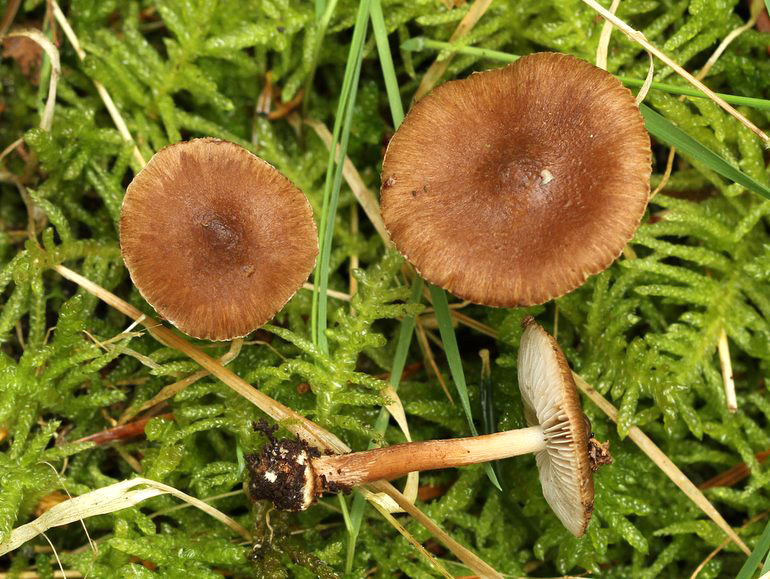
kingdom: Fungi
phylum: Basidiomycota
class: Agaricomycetes
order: Agaricales
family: Inocybaceae
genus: Inocybe
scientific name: Inocybe napipes
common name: roeknoldet trævlhat
